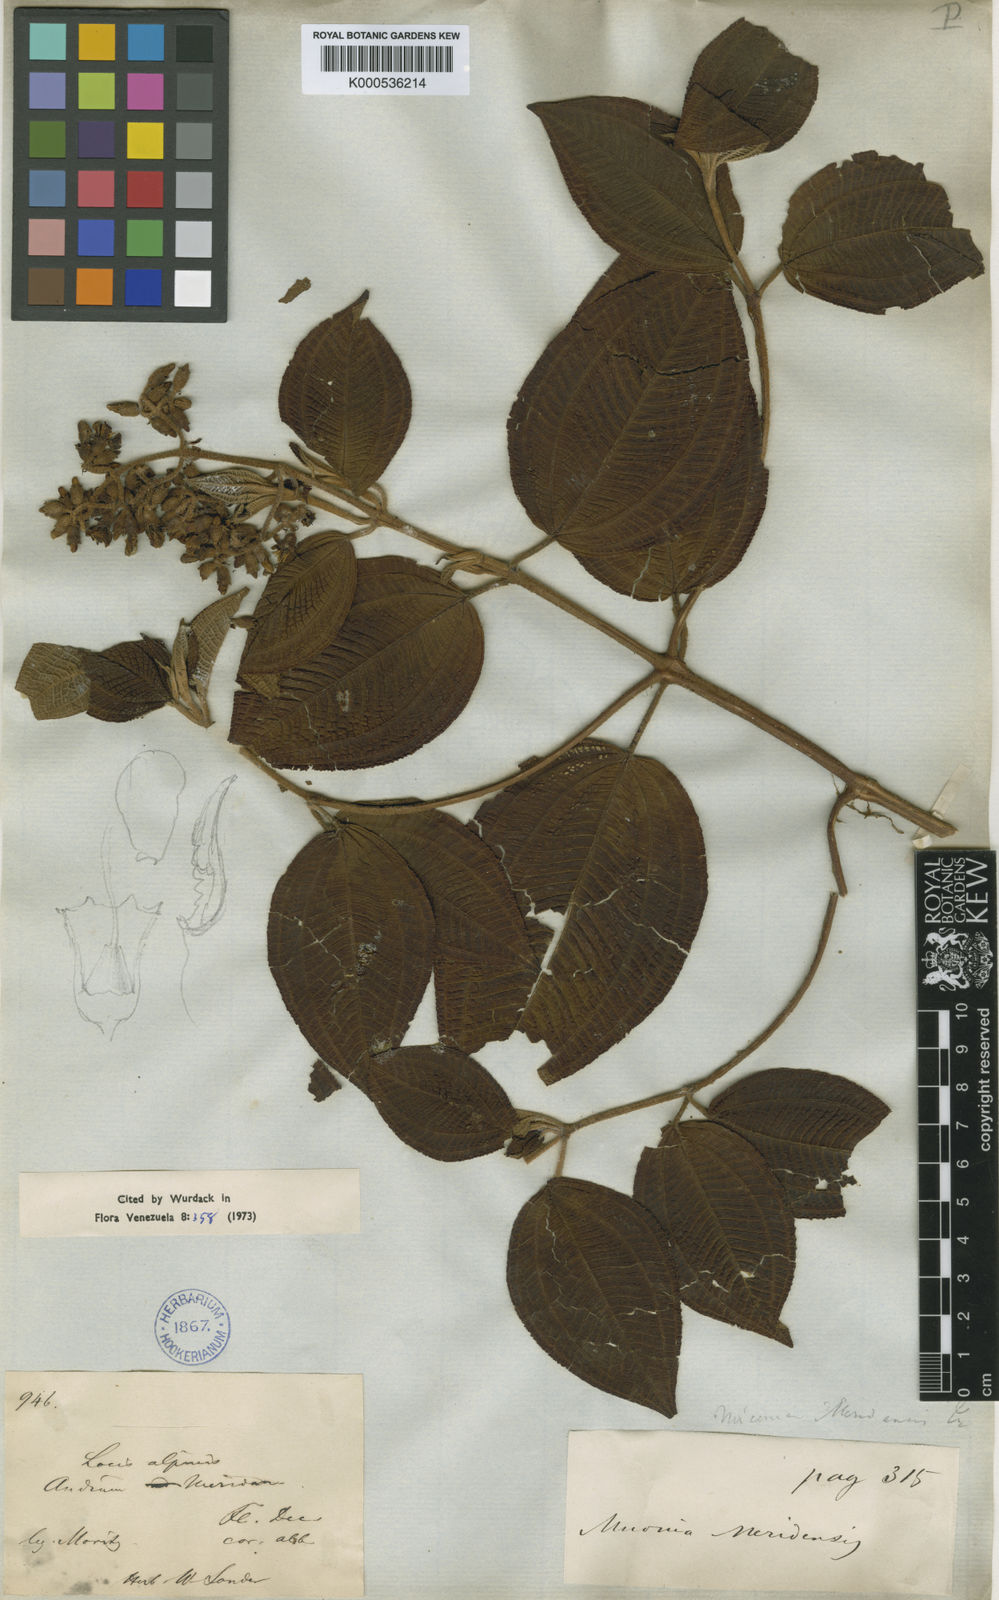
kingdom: Plantae
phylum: Tracheophyta
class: Magnoliopsida
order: Myrtales
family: Melastomataceae
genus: Miconia
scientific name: Miconia meridensis
